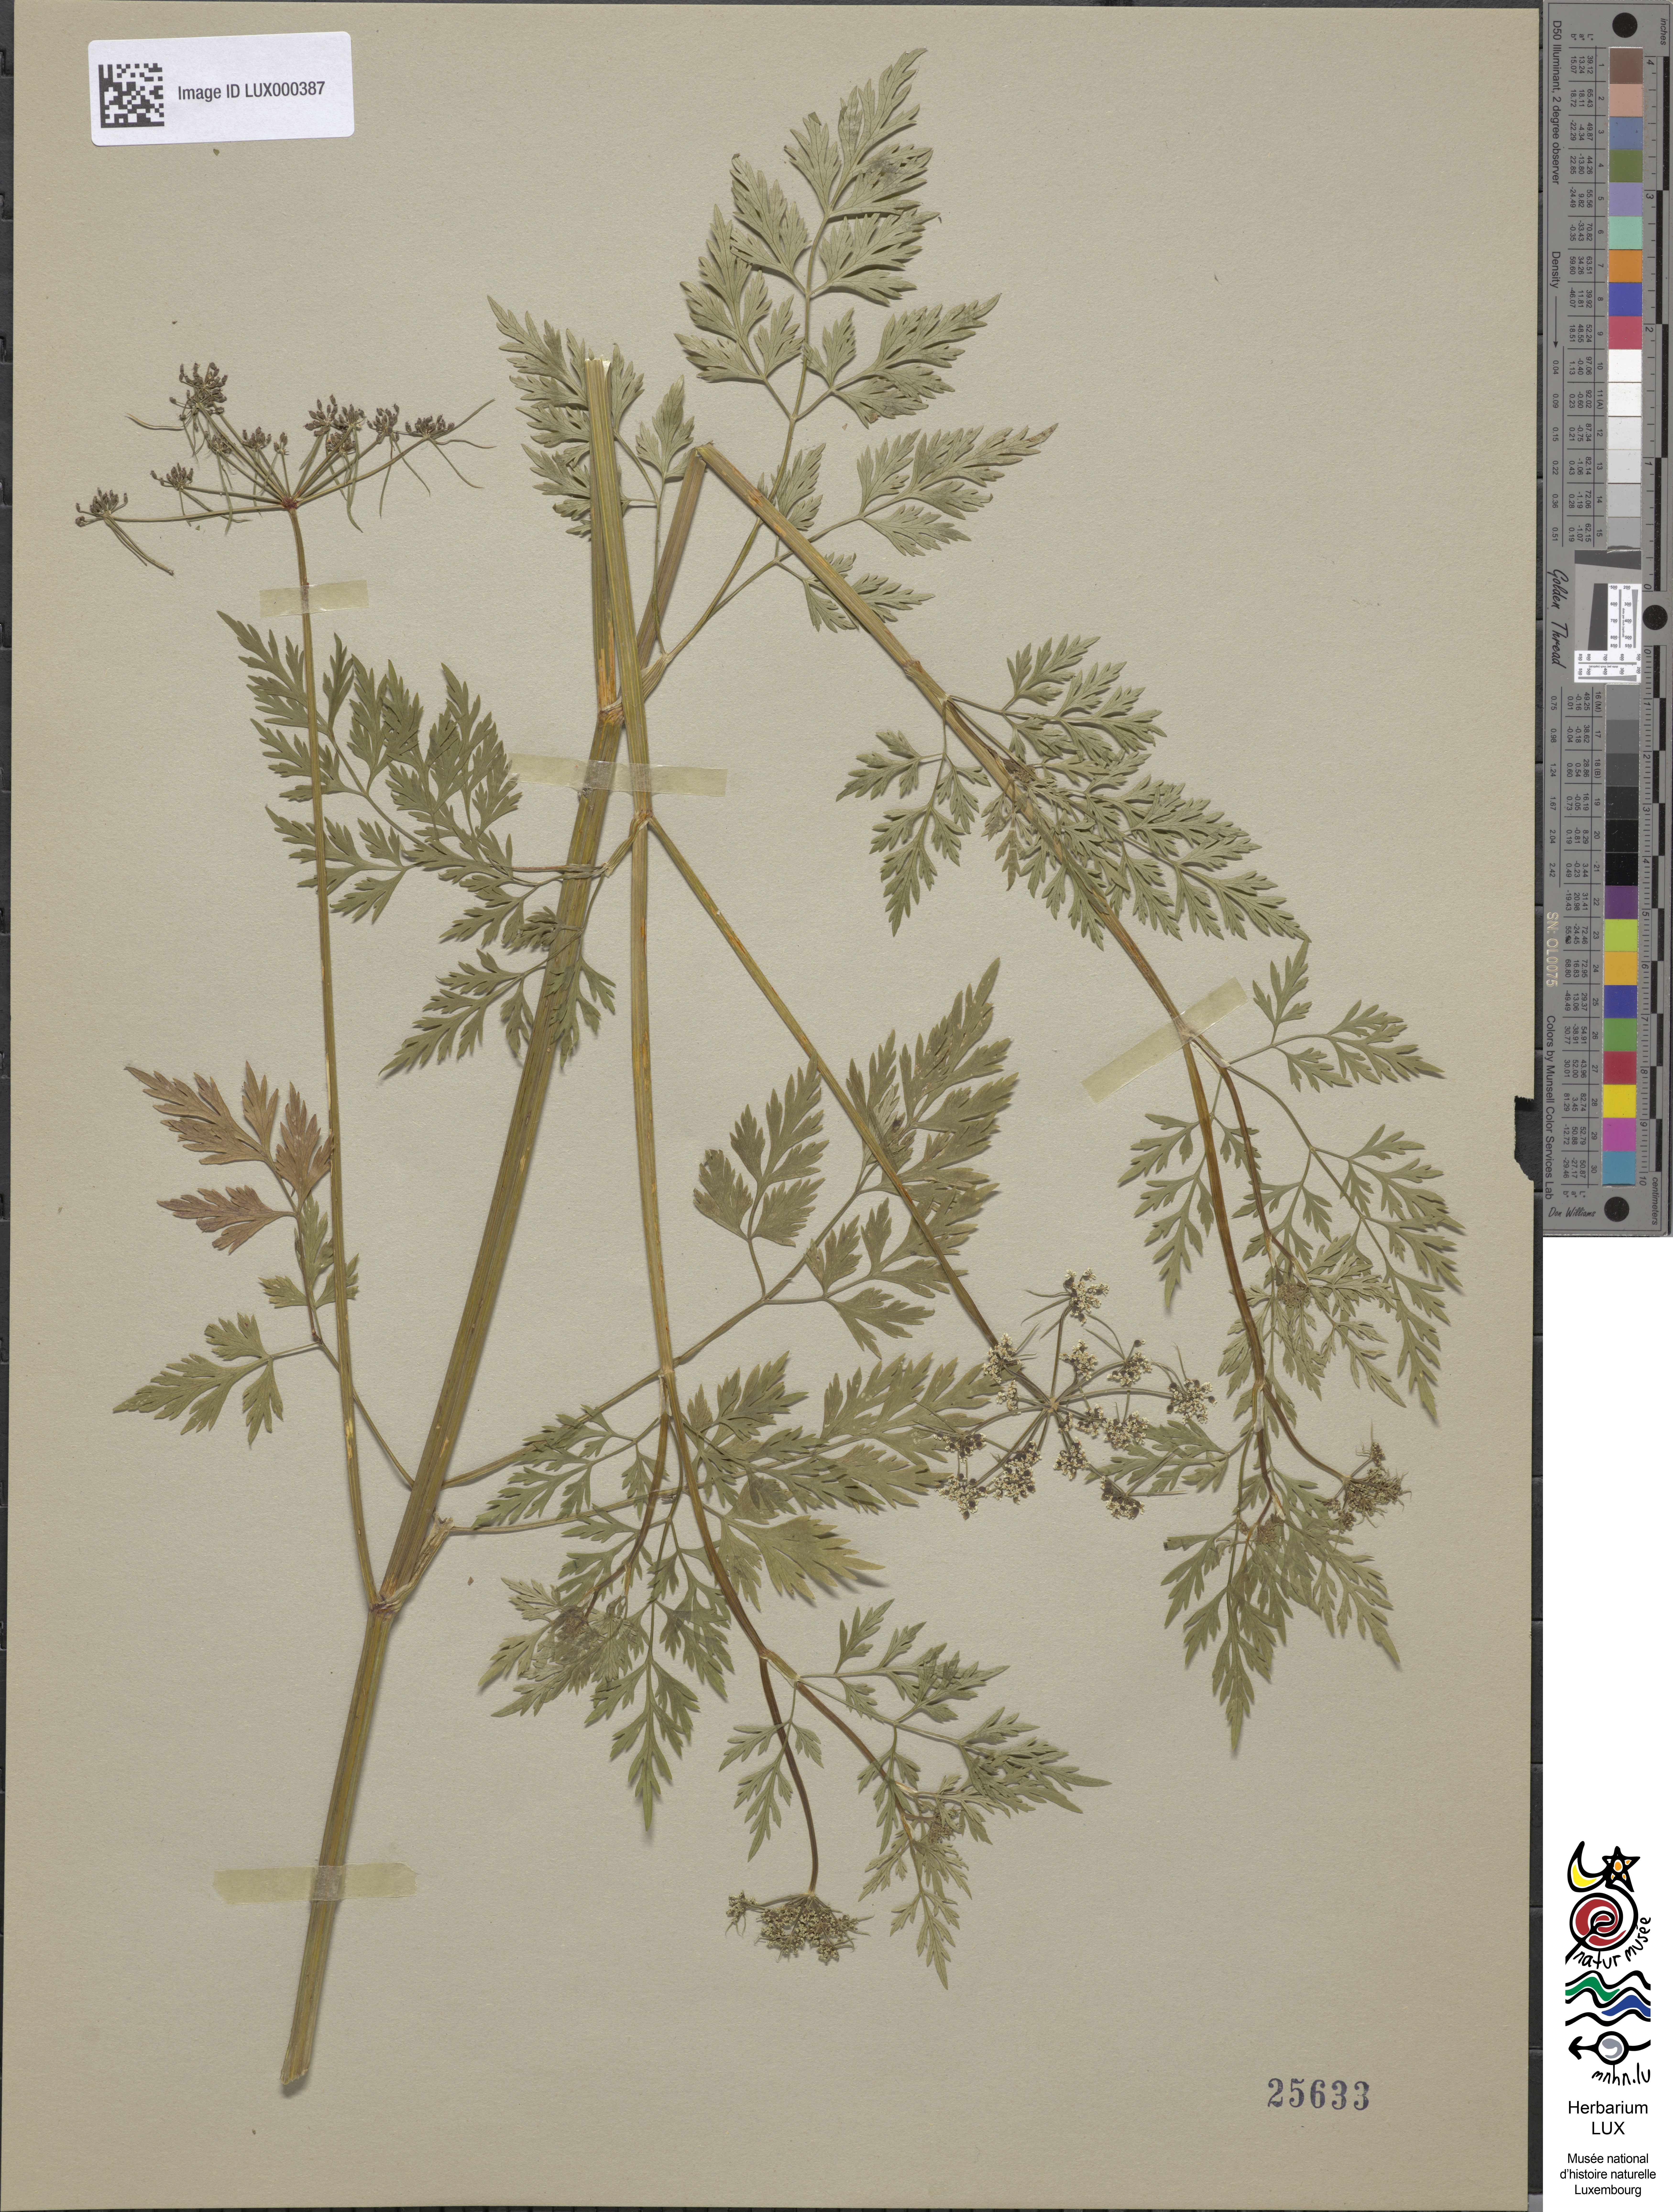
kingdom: Plantae
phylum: Tracheophyta
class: Magnoliopsida
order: Apiales
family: Apiaceae
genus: Aethusa
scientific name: Aethusa cynapium
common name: Fool's parsley
